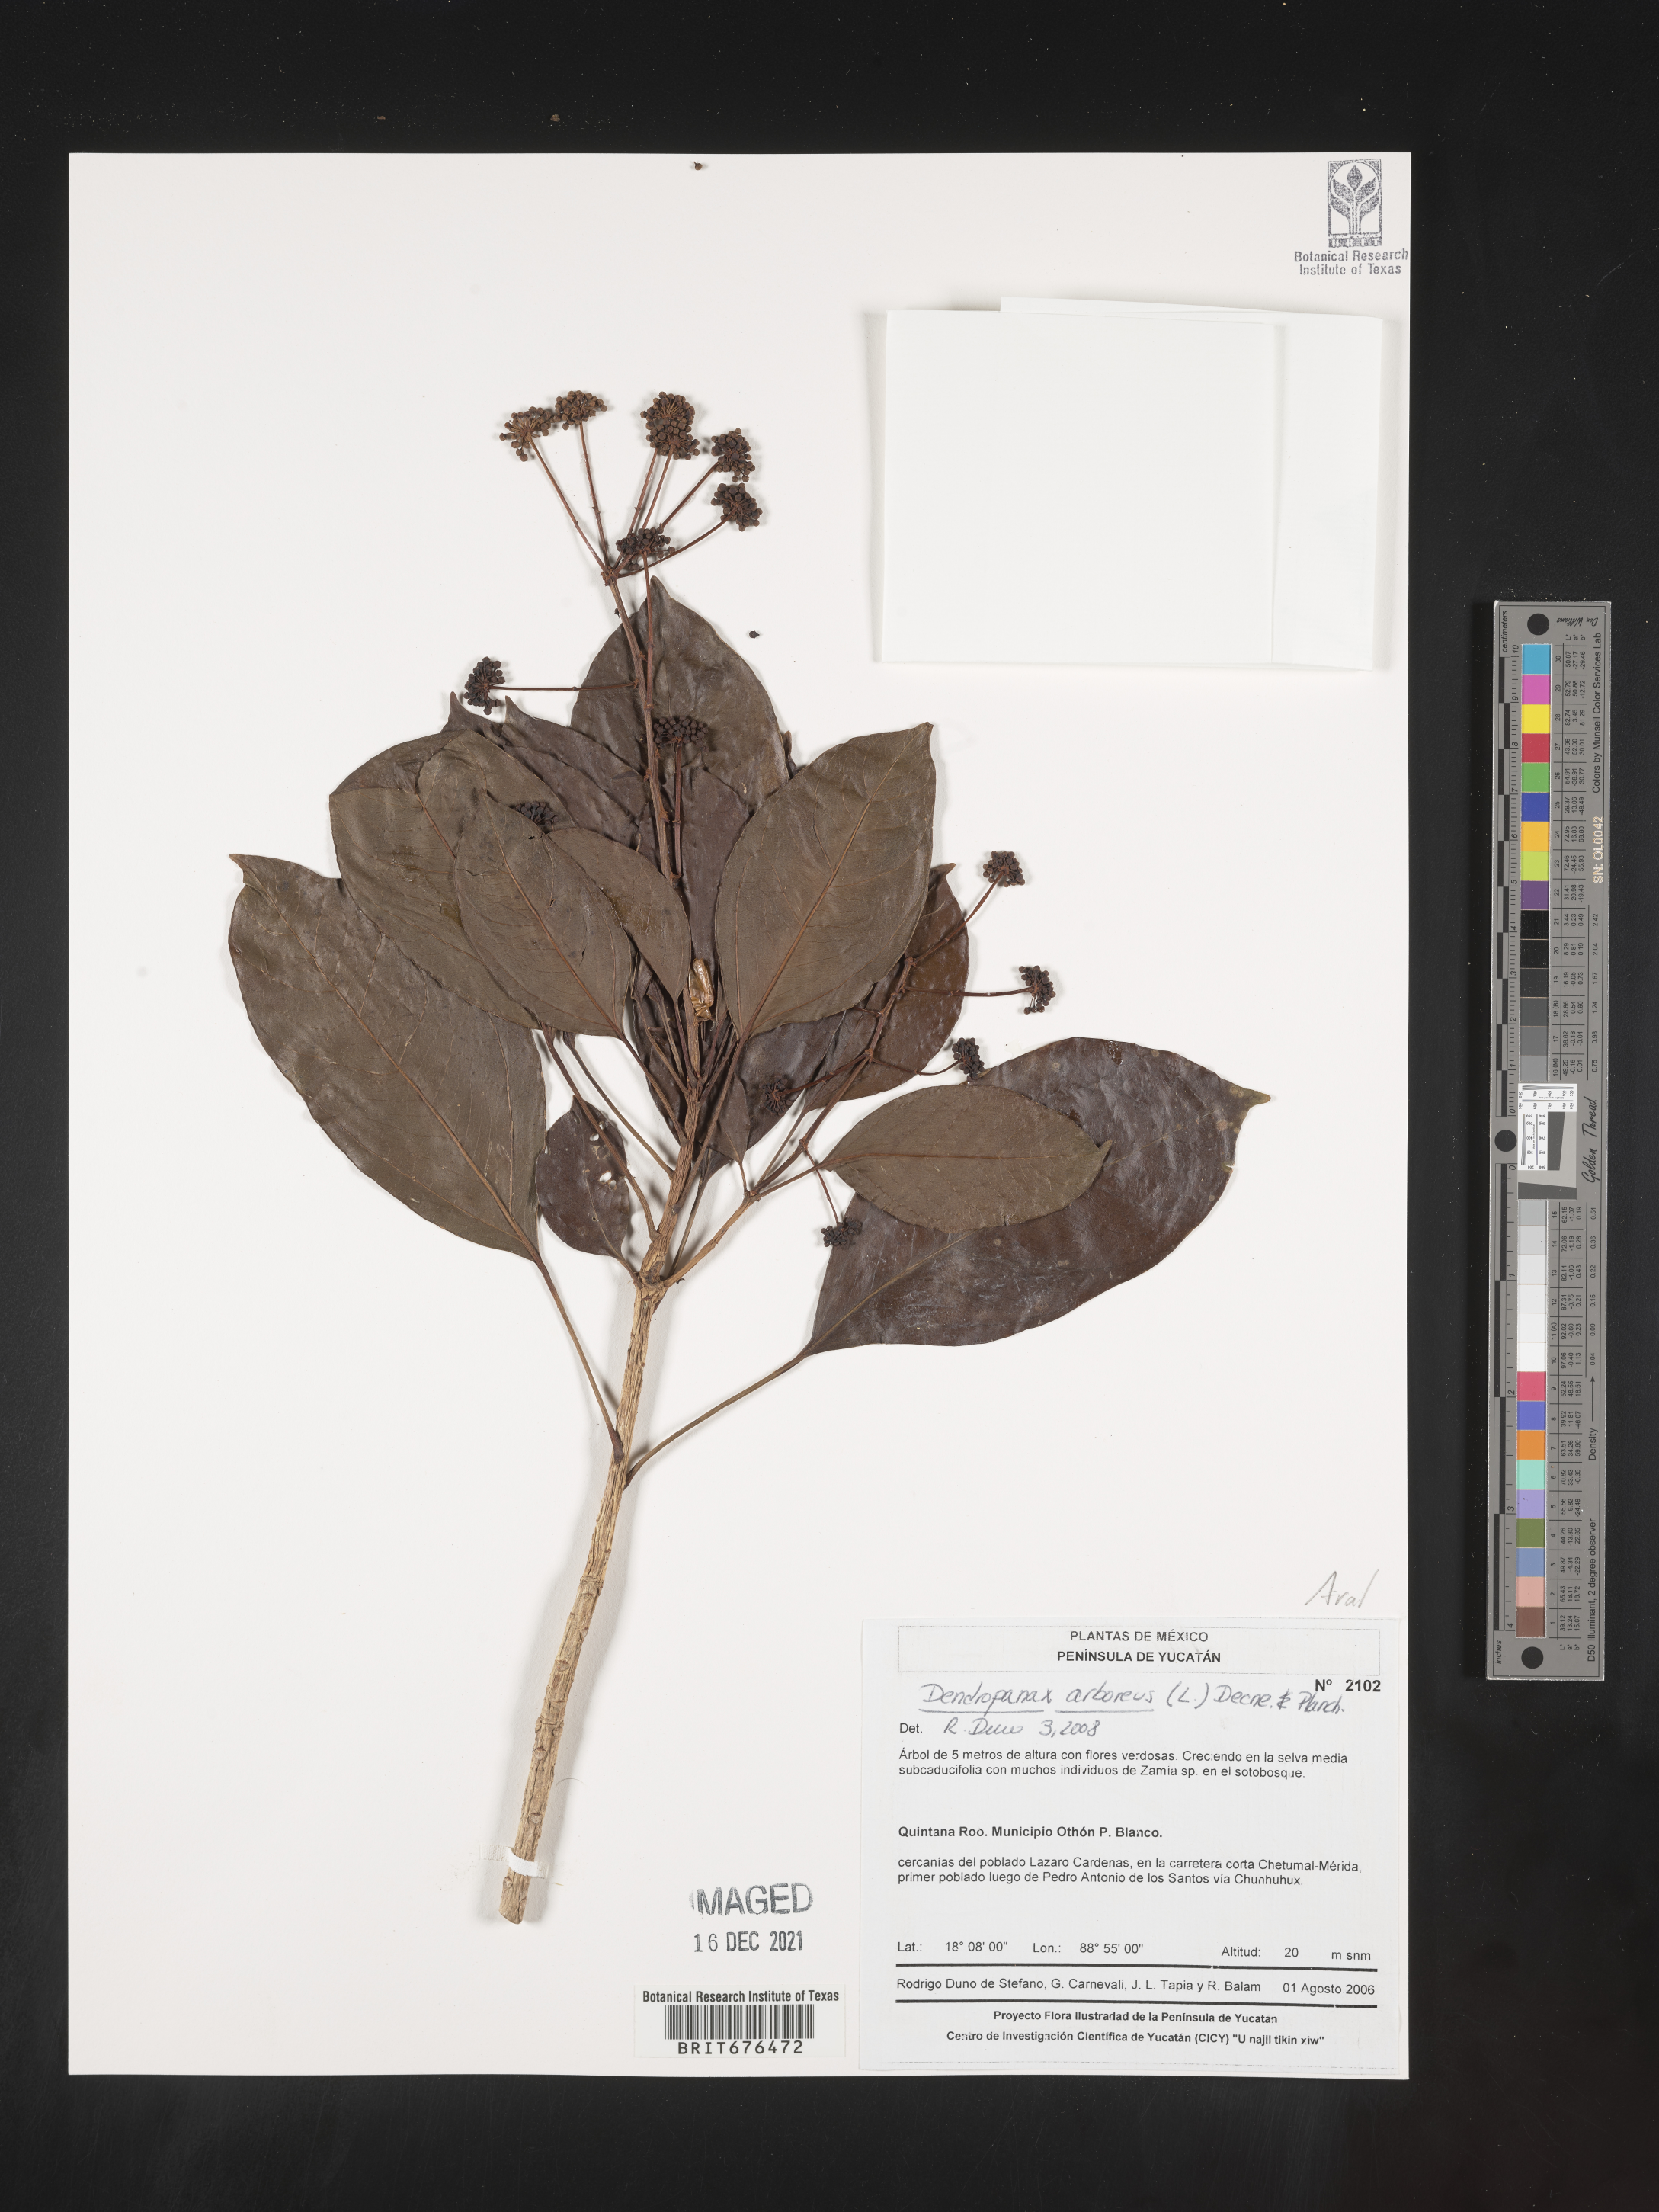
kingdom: Plantae
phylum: Tracheophyta
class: Magnoliopsida
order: Apiales
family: Araliaceae
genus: Dendropanax
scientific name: Dendropanax
